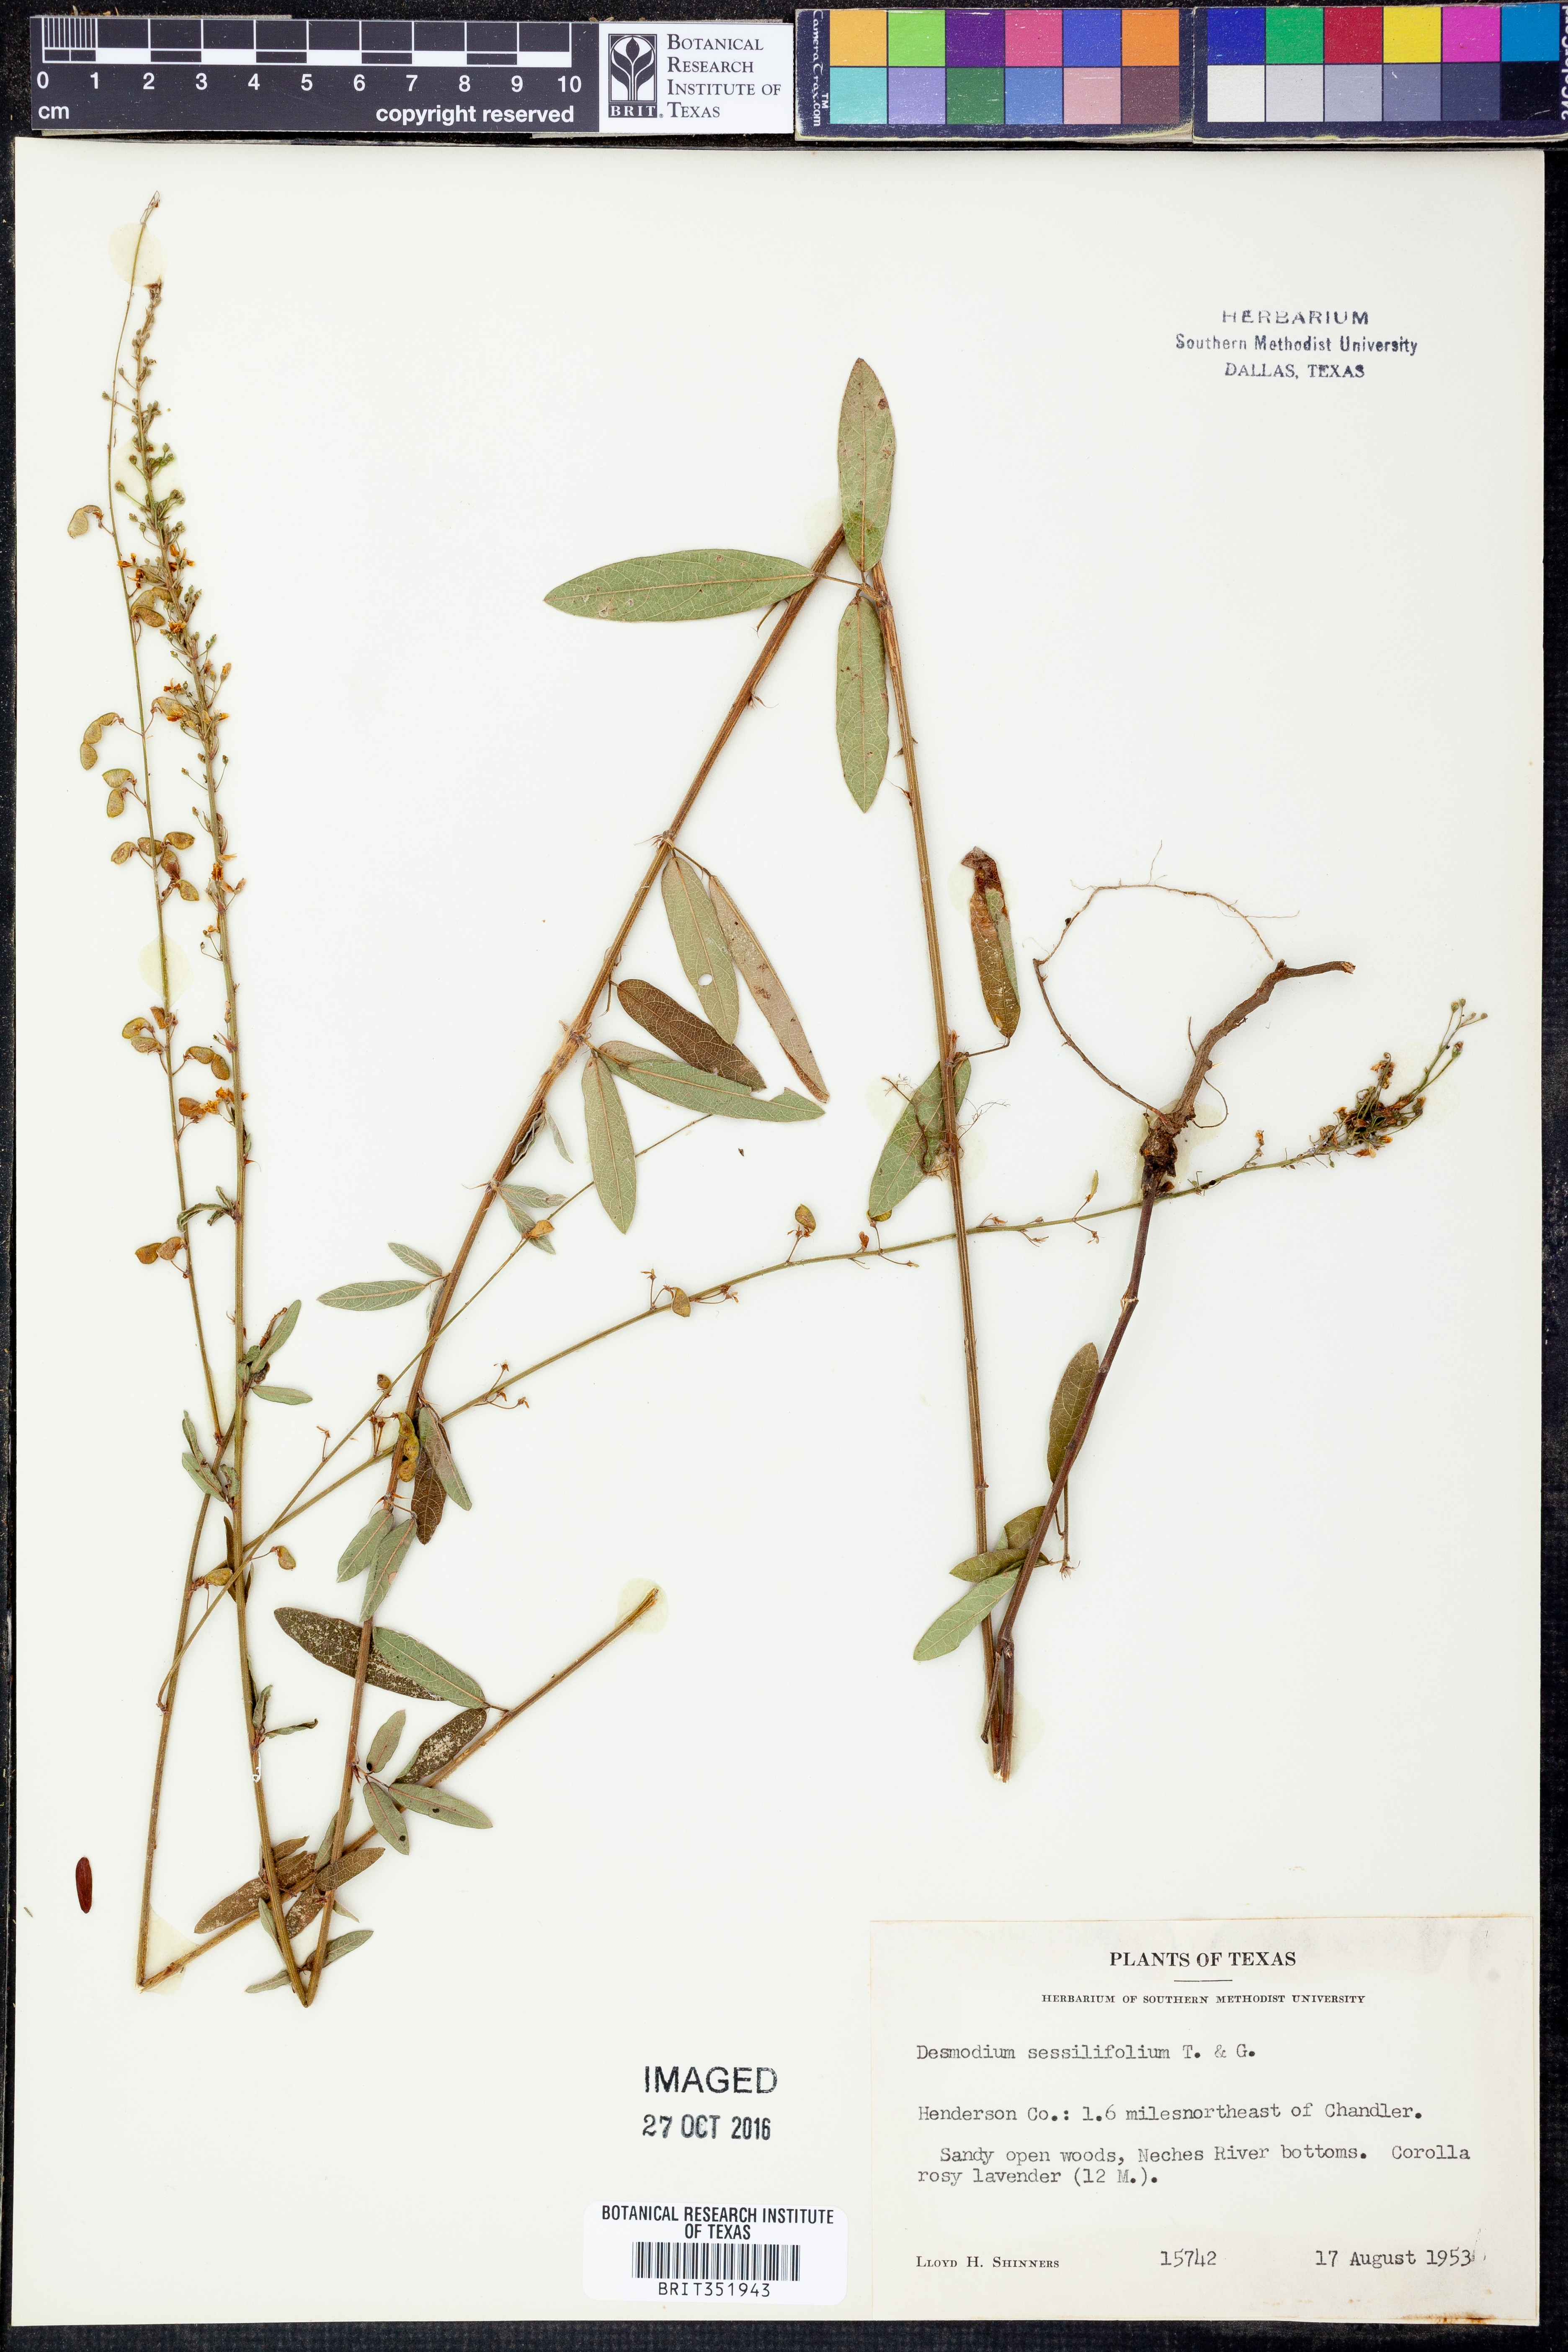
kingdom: Plantae
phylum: Tracheophyta
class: Magnoliopsida
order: Fabales
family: Fabaceae
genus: Desmodium
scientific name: Desmodium sessilifolium
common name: Sessile tick-clover
